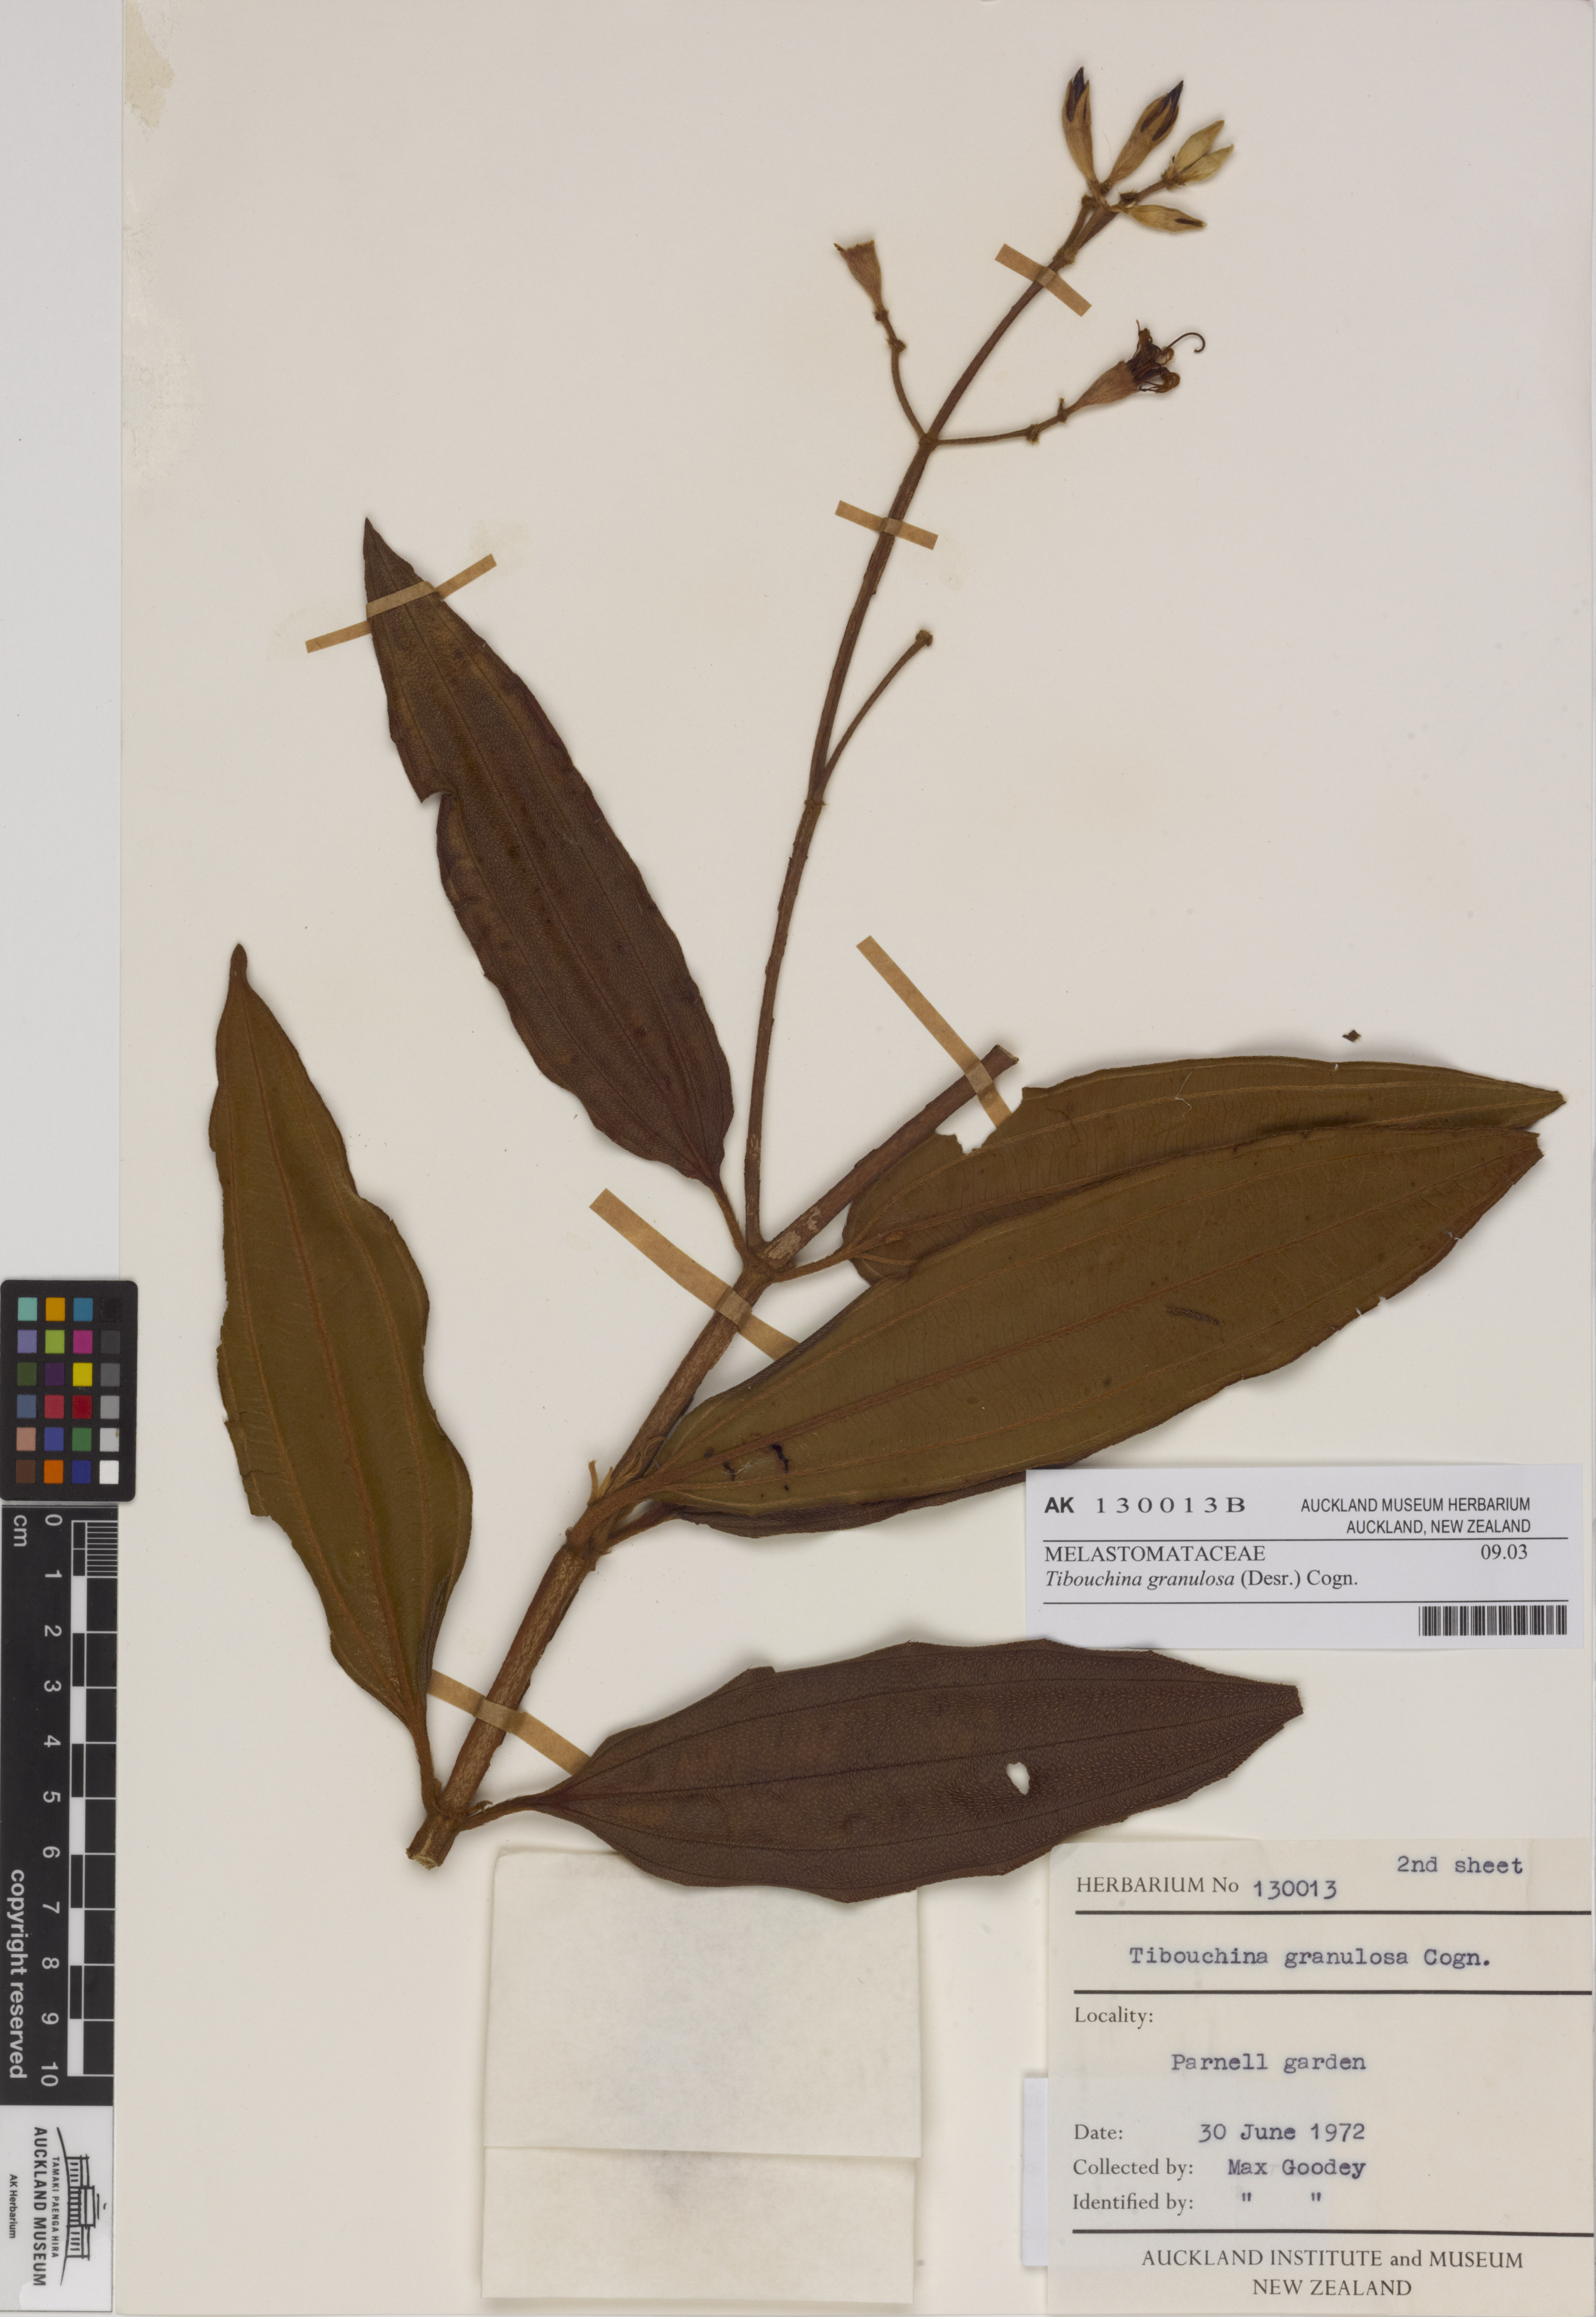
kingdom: Plantae
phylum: Tracheophyta
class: Magnoliopsida
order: Myrtales
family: Melastomataceae
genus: Pleroma
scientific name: Pleroma granulosum
